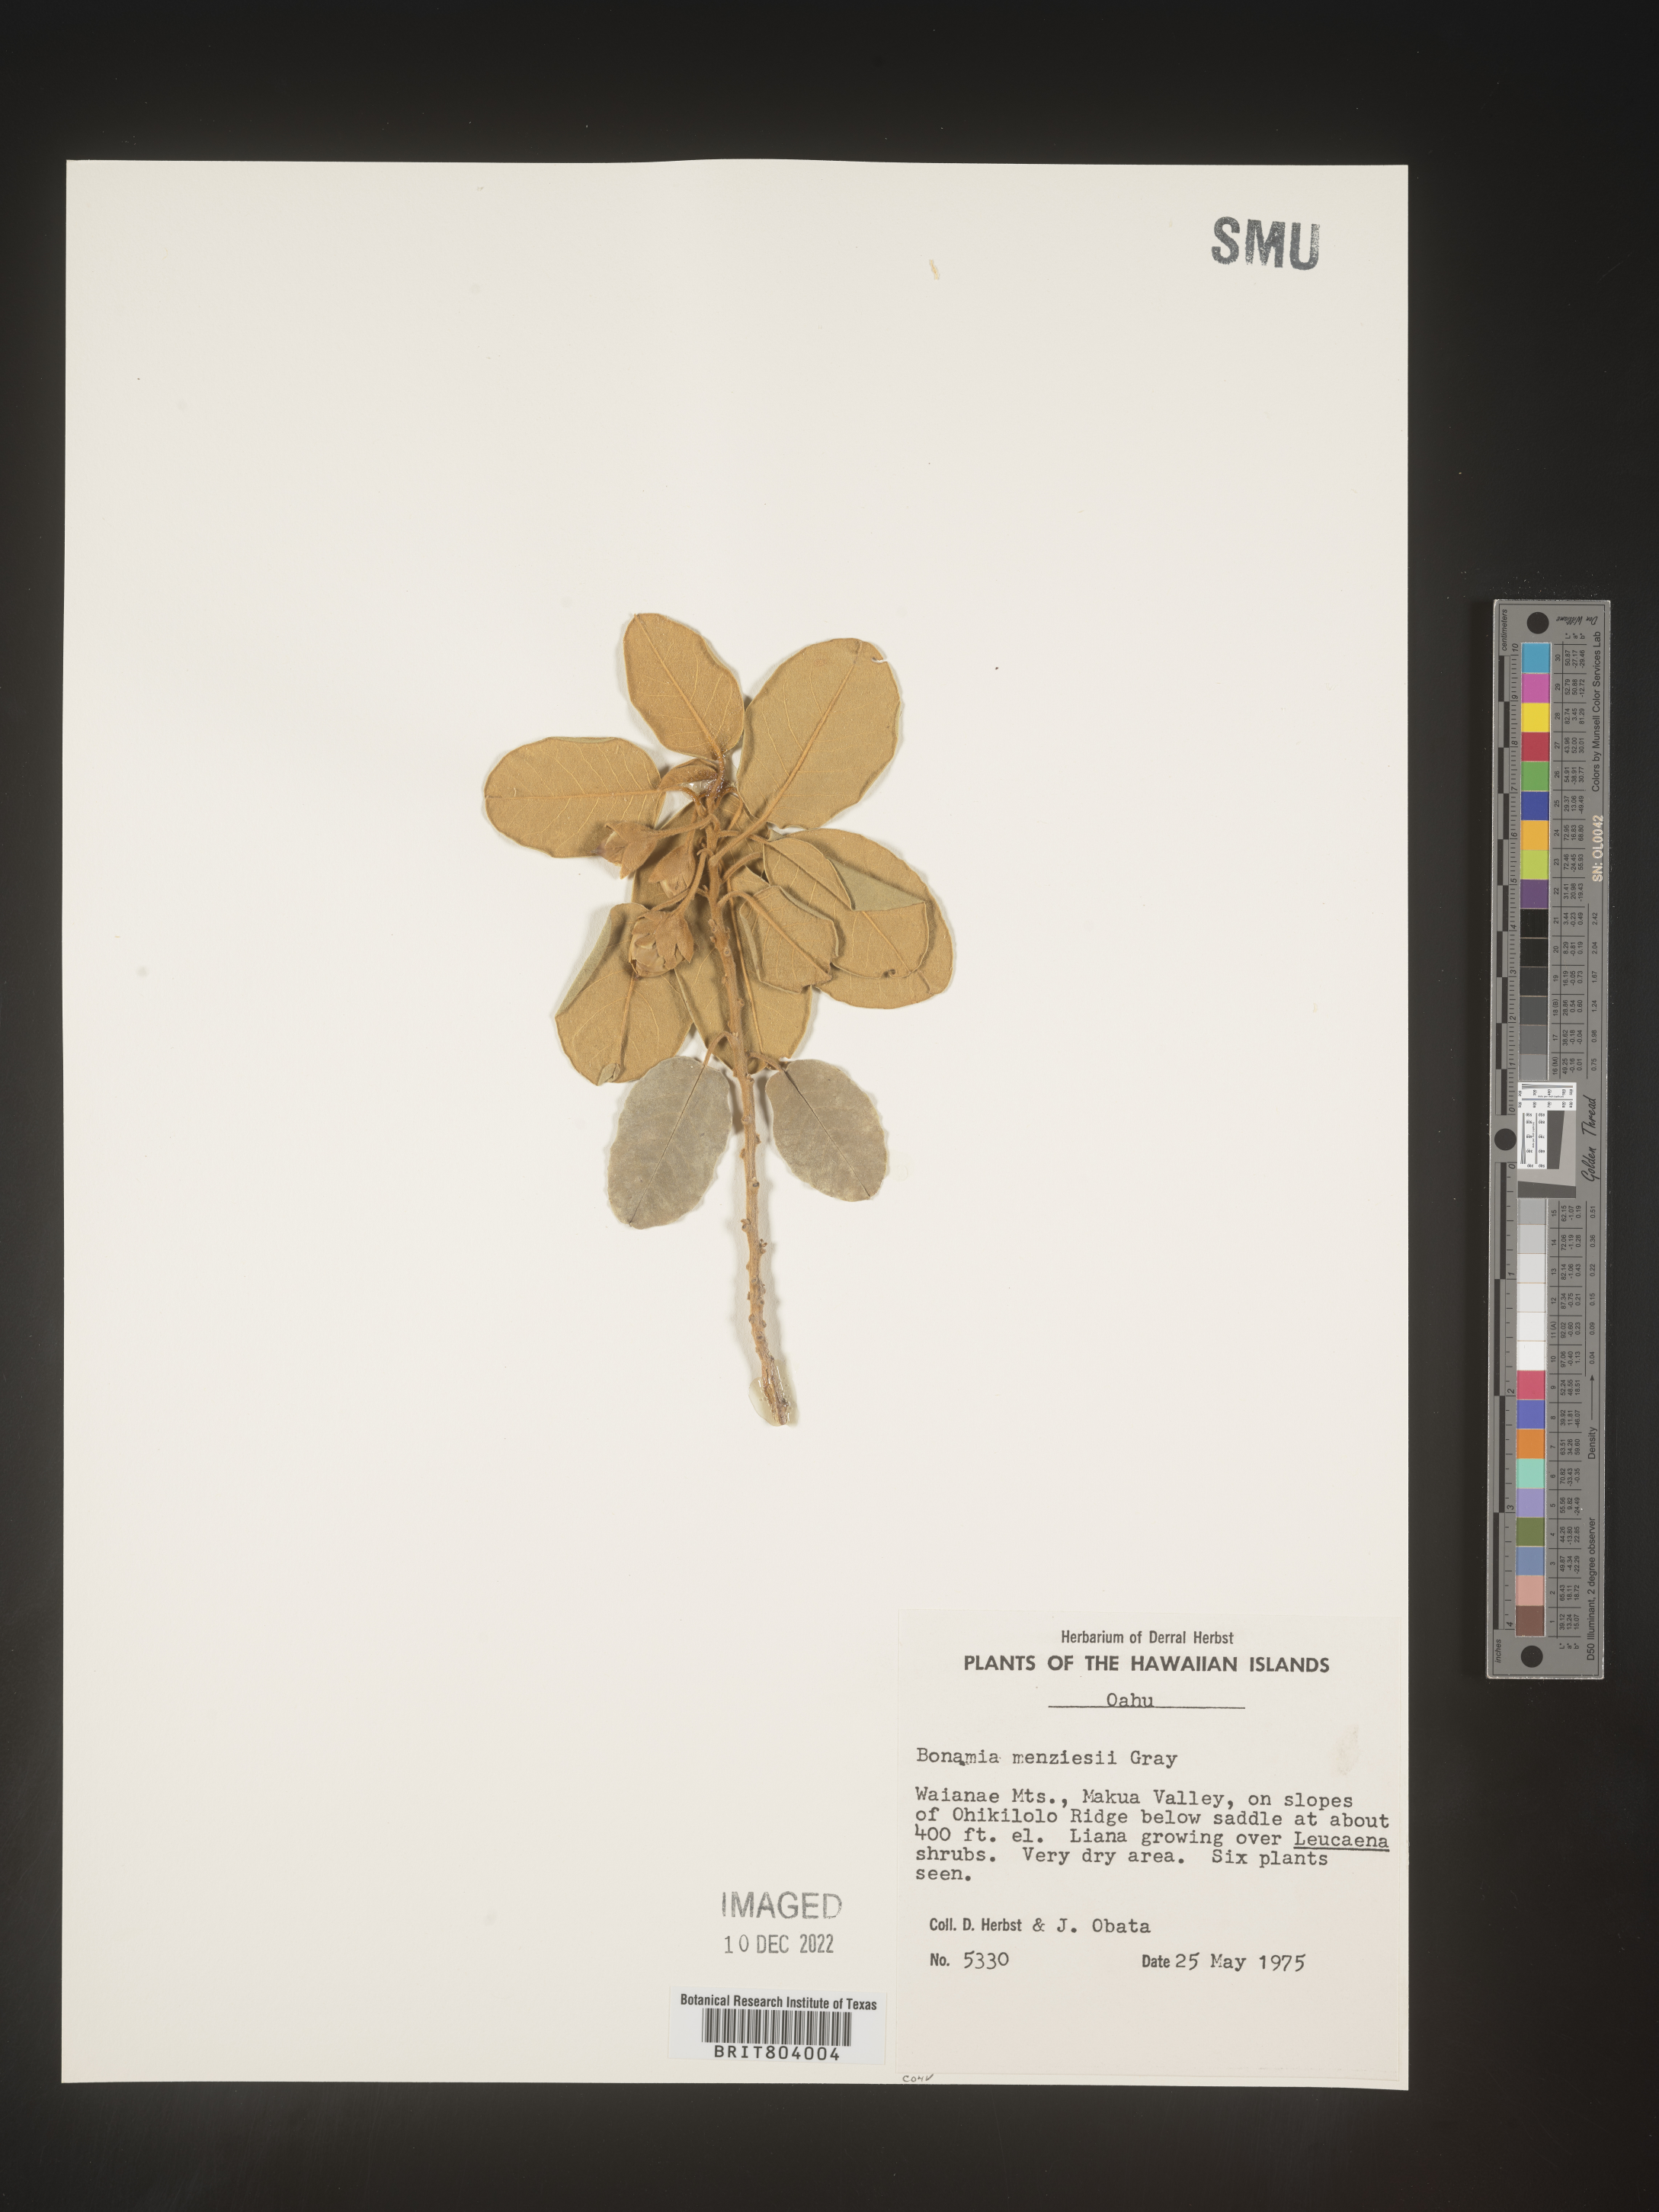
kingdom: Plantae
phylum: Tracheophyta
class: Magnoliopsida
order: Solanales
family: Convolvulaceae
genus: Bonamia
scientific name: Bonamia
